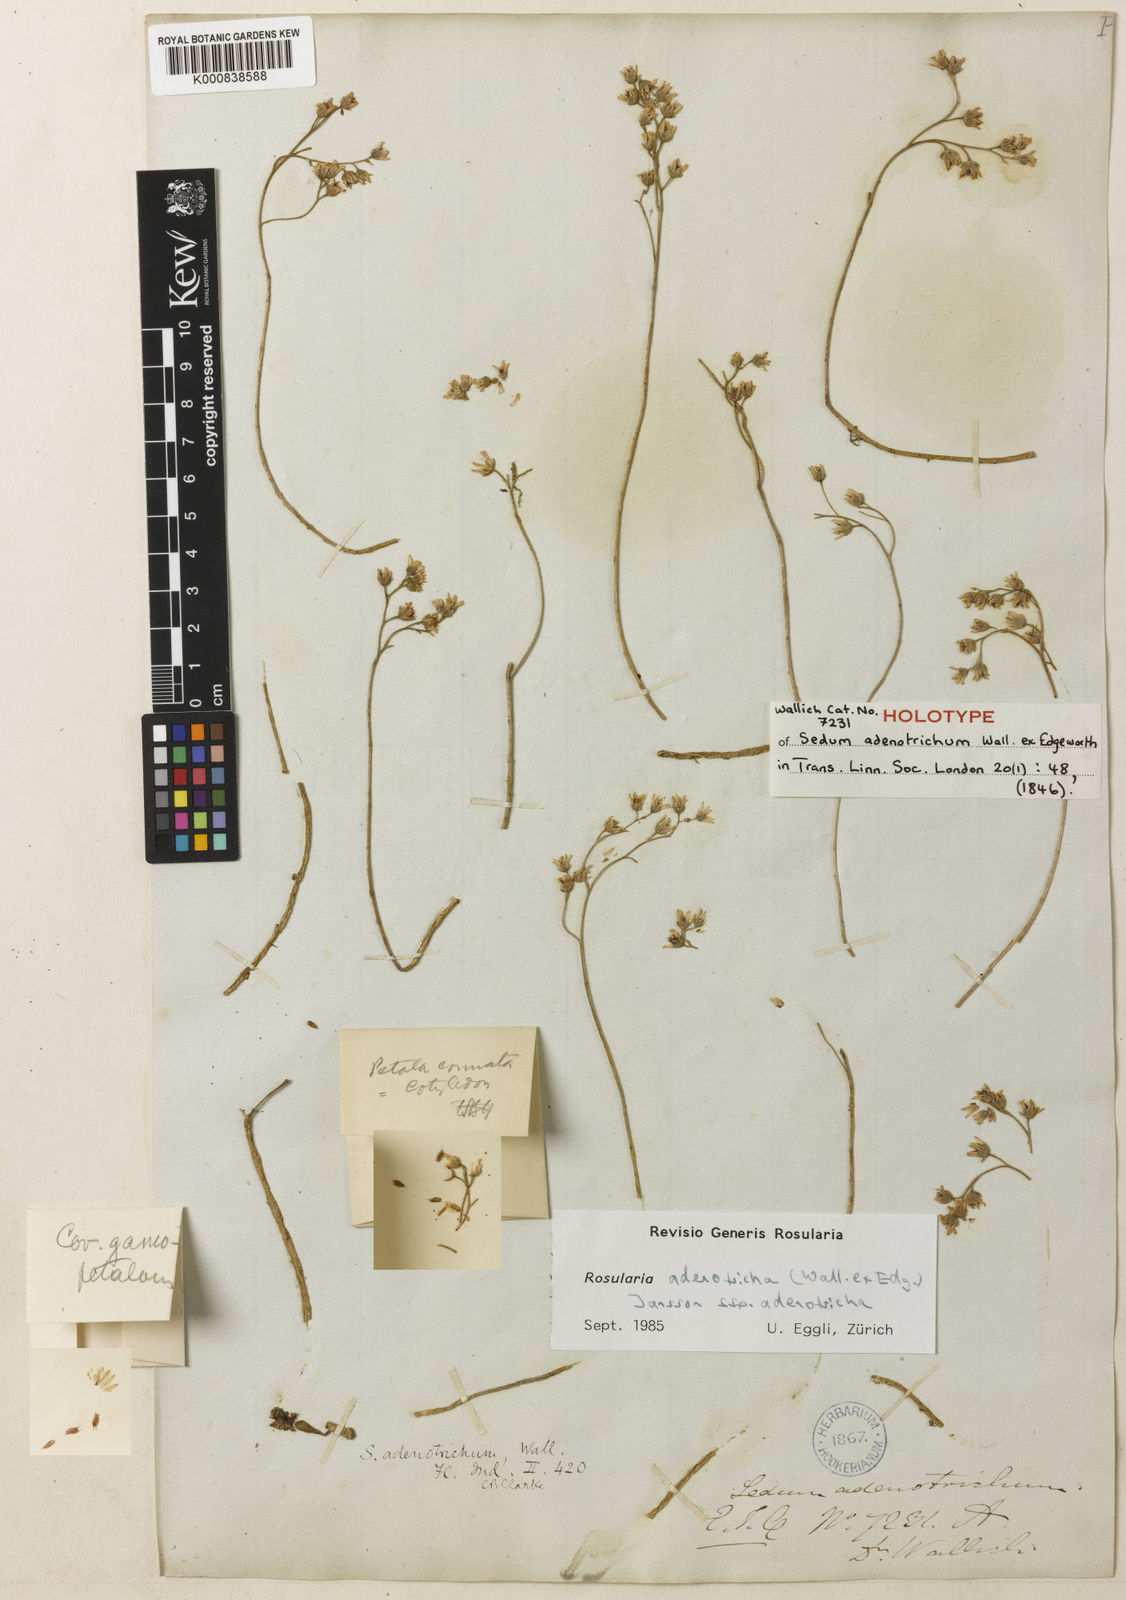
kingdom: Plantae
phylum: Tracheophyta
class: Magnoliopsida
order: Saxifragales
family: Crassulaceae
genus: Rosularia
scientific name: Rosularia adenotricha
